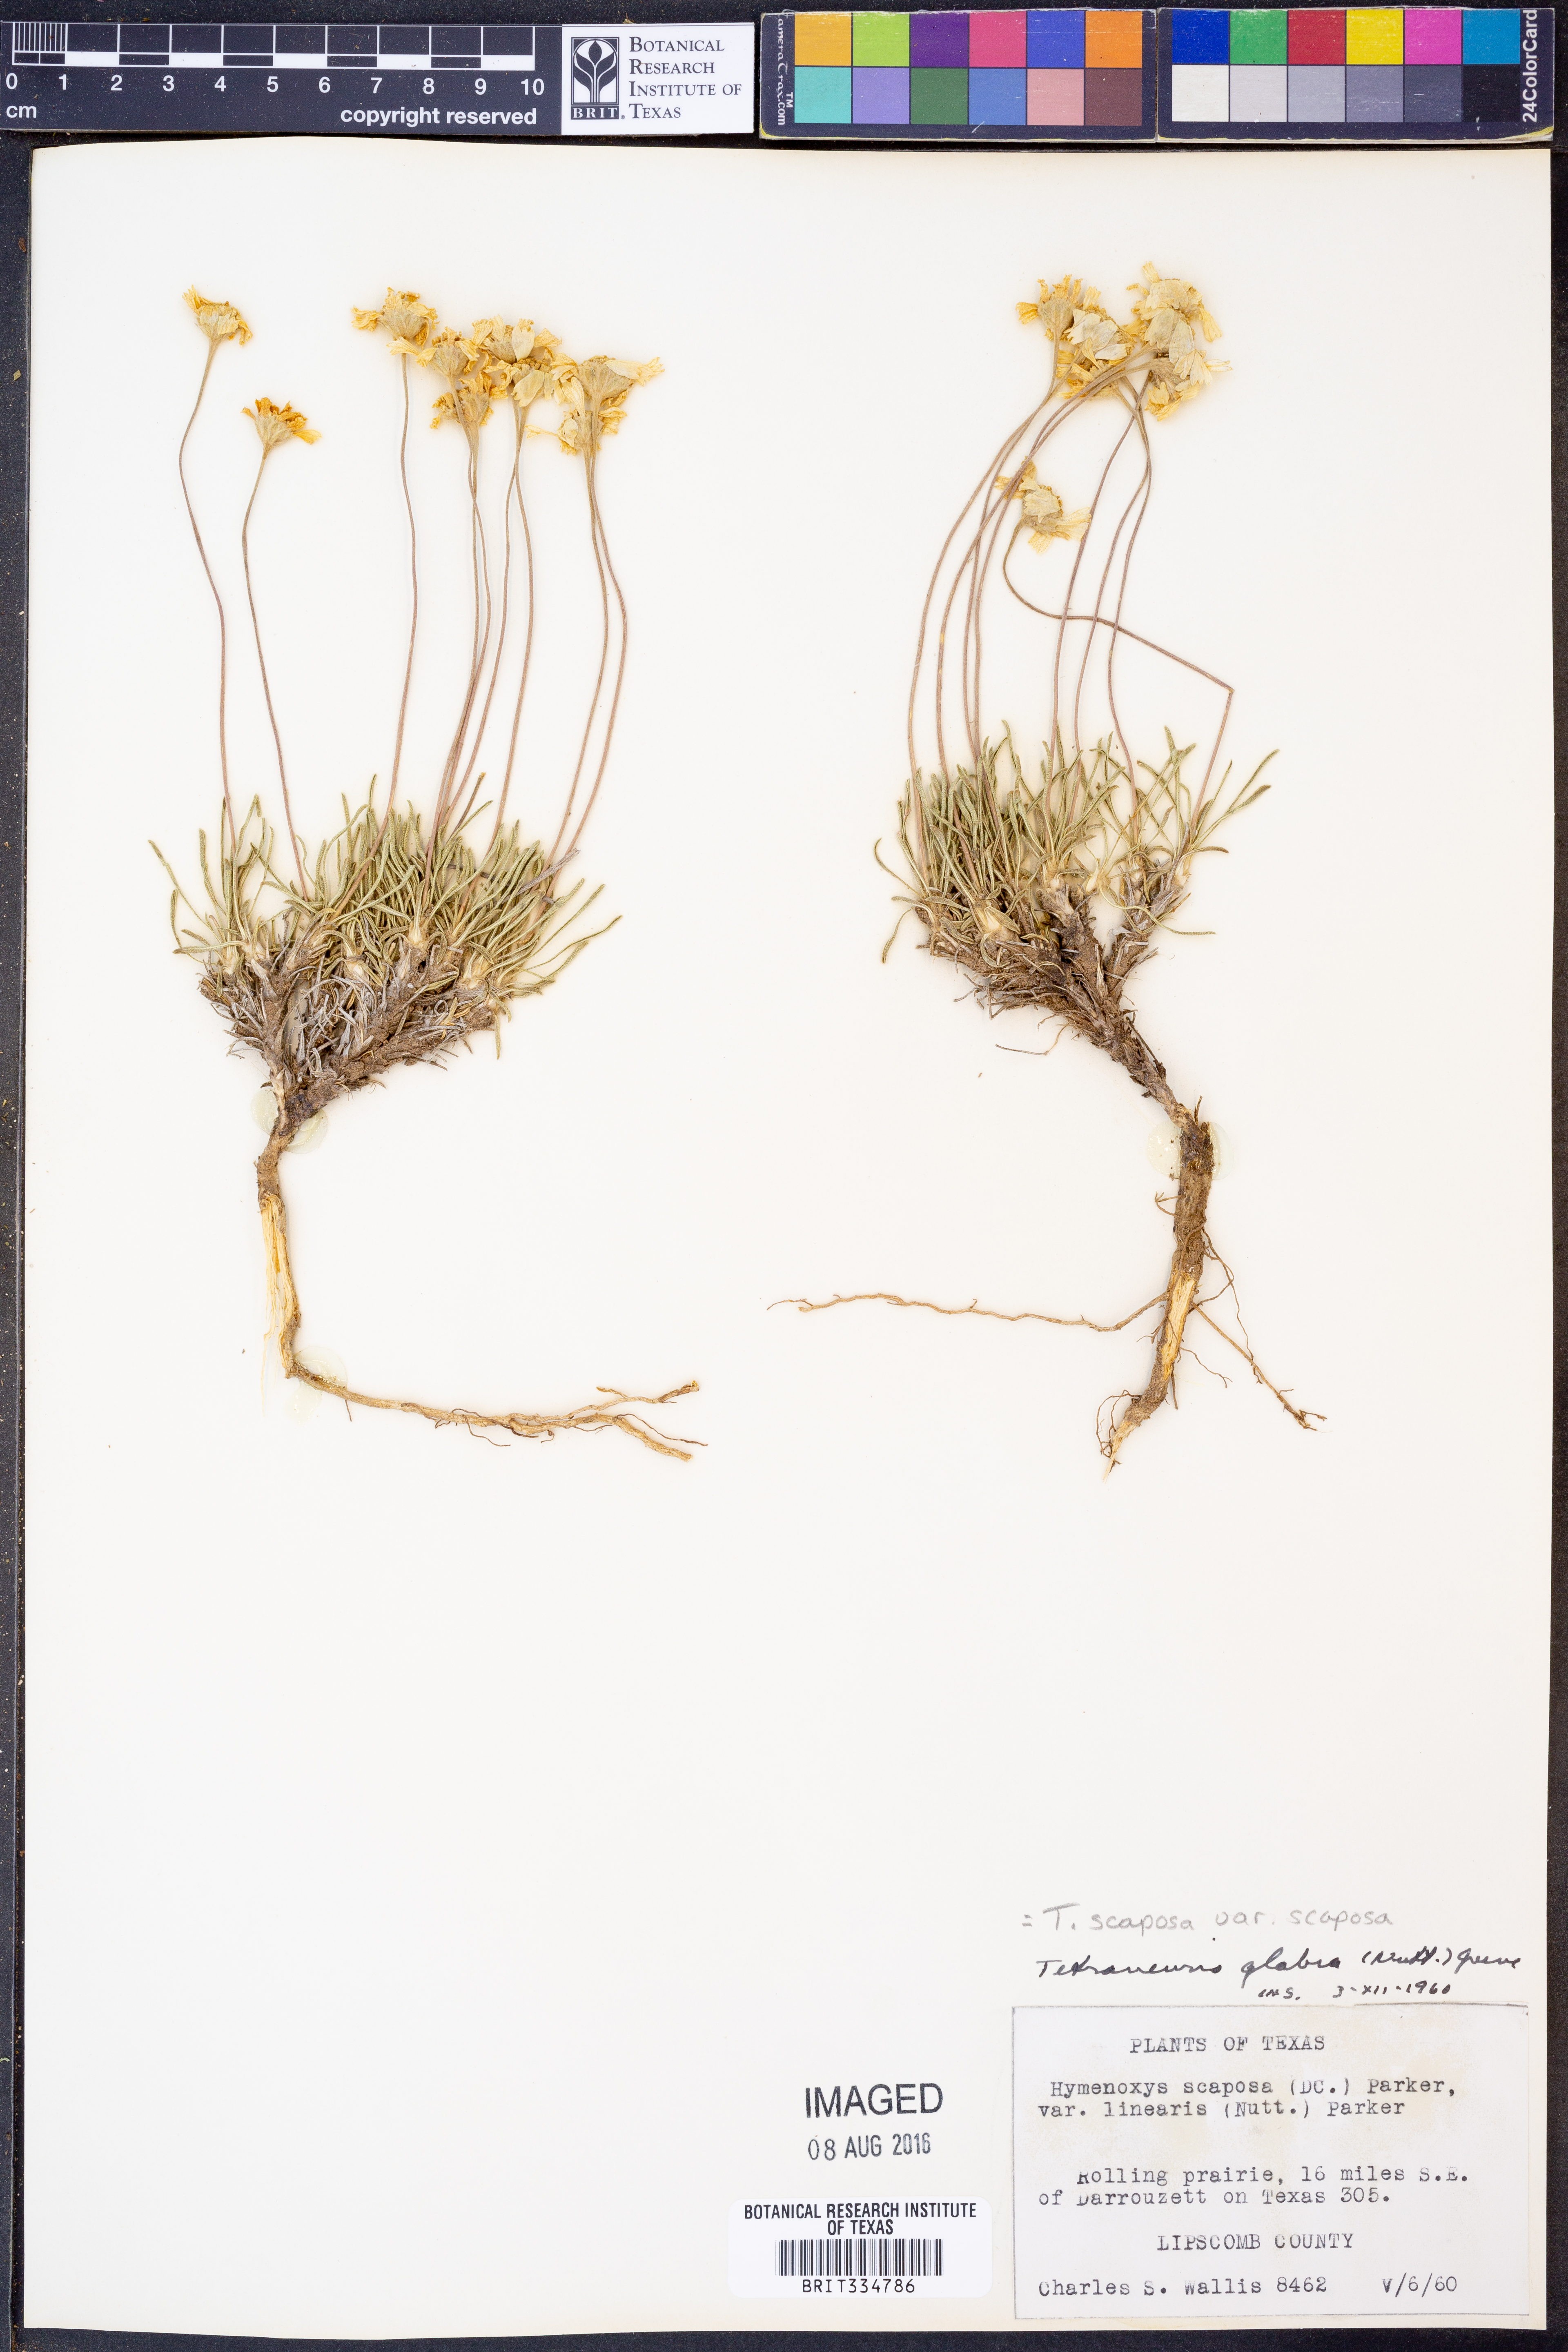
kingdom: Plantae
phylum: Tracheophyta
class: Magnoliopsida
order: Asterales
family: Asteraceae
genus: Tetraneuris
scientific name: Tetraneuris scaposa
